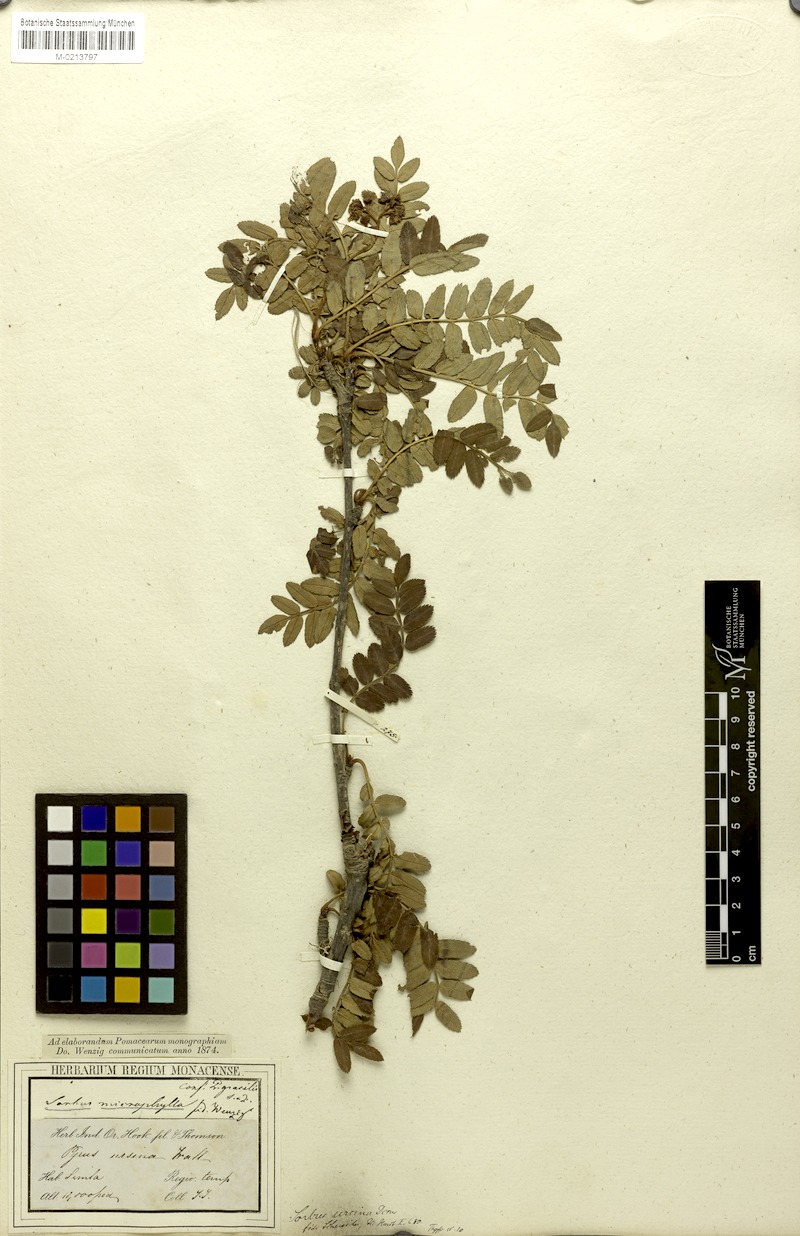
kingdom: Plantae
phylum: Tracheophyta
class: Magnoliopsida
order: Rosales
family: Rosaceae
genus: Sorbus
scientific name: Sorbus foliolosa
